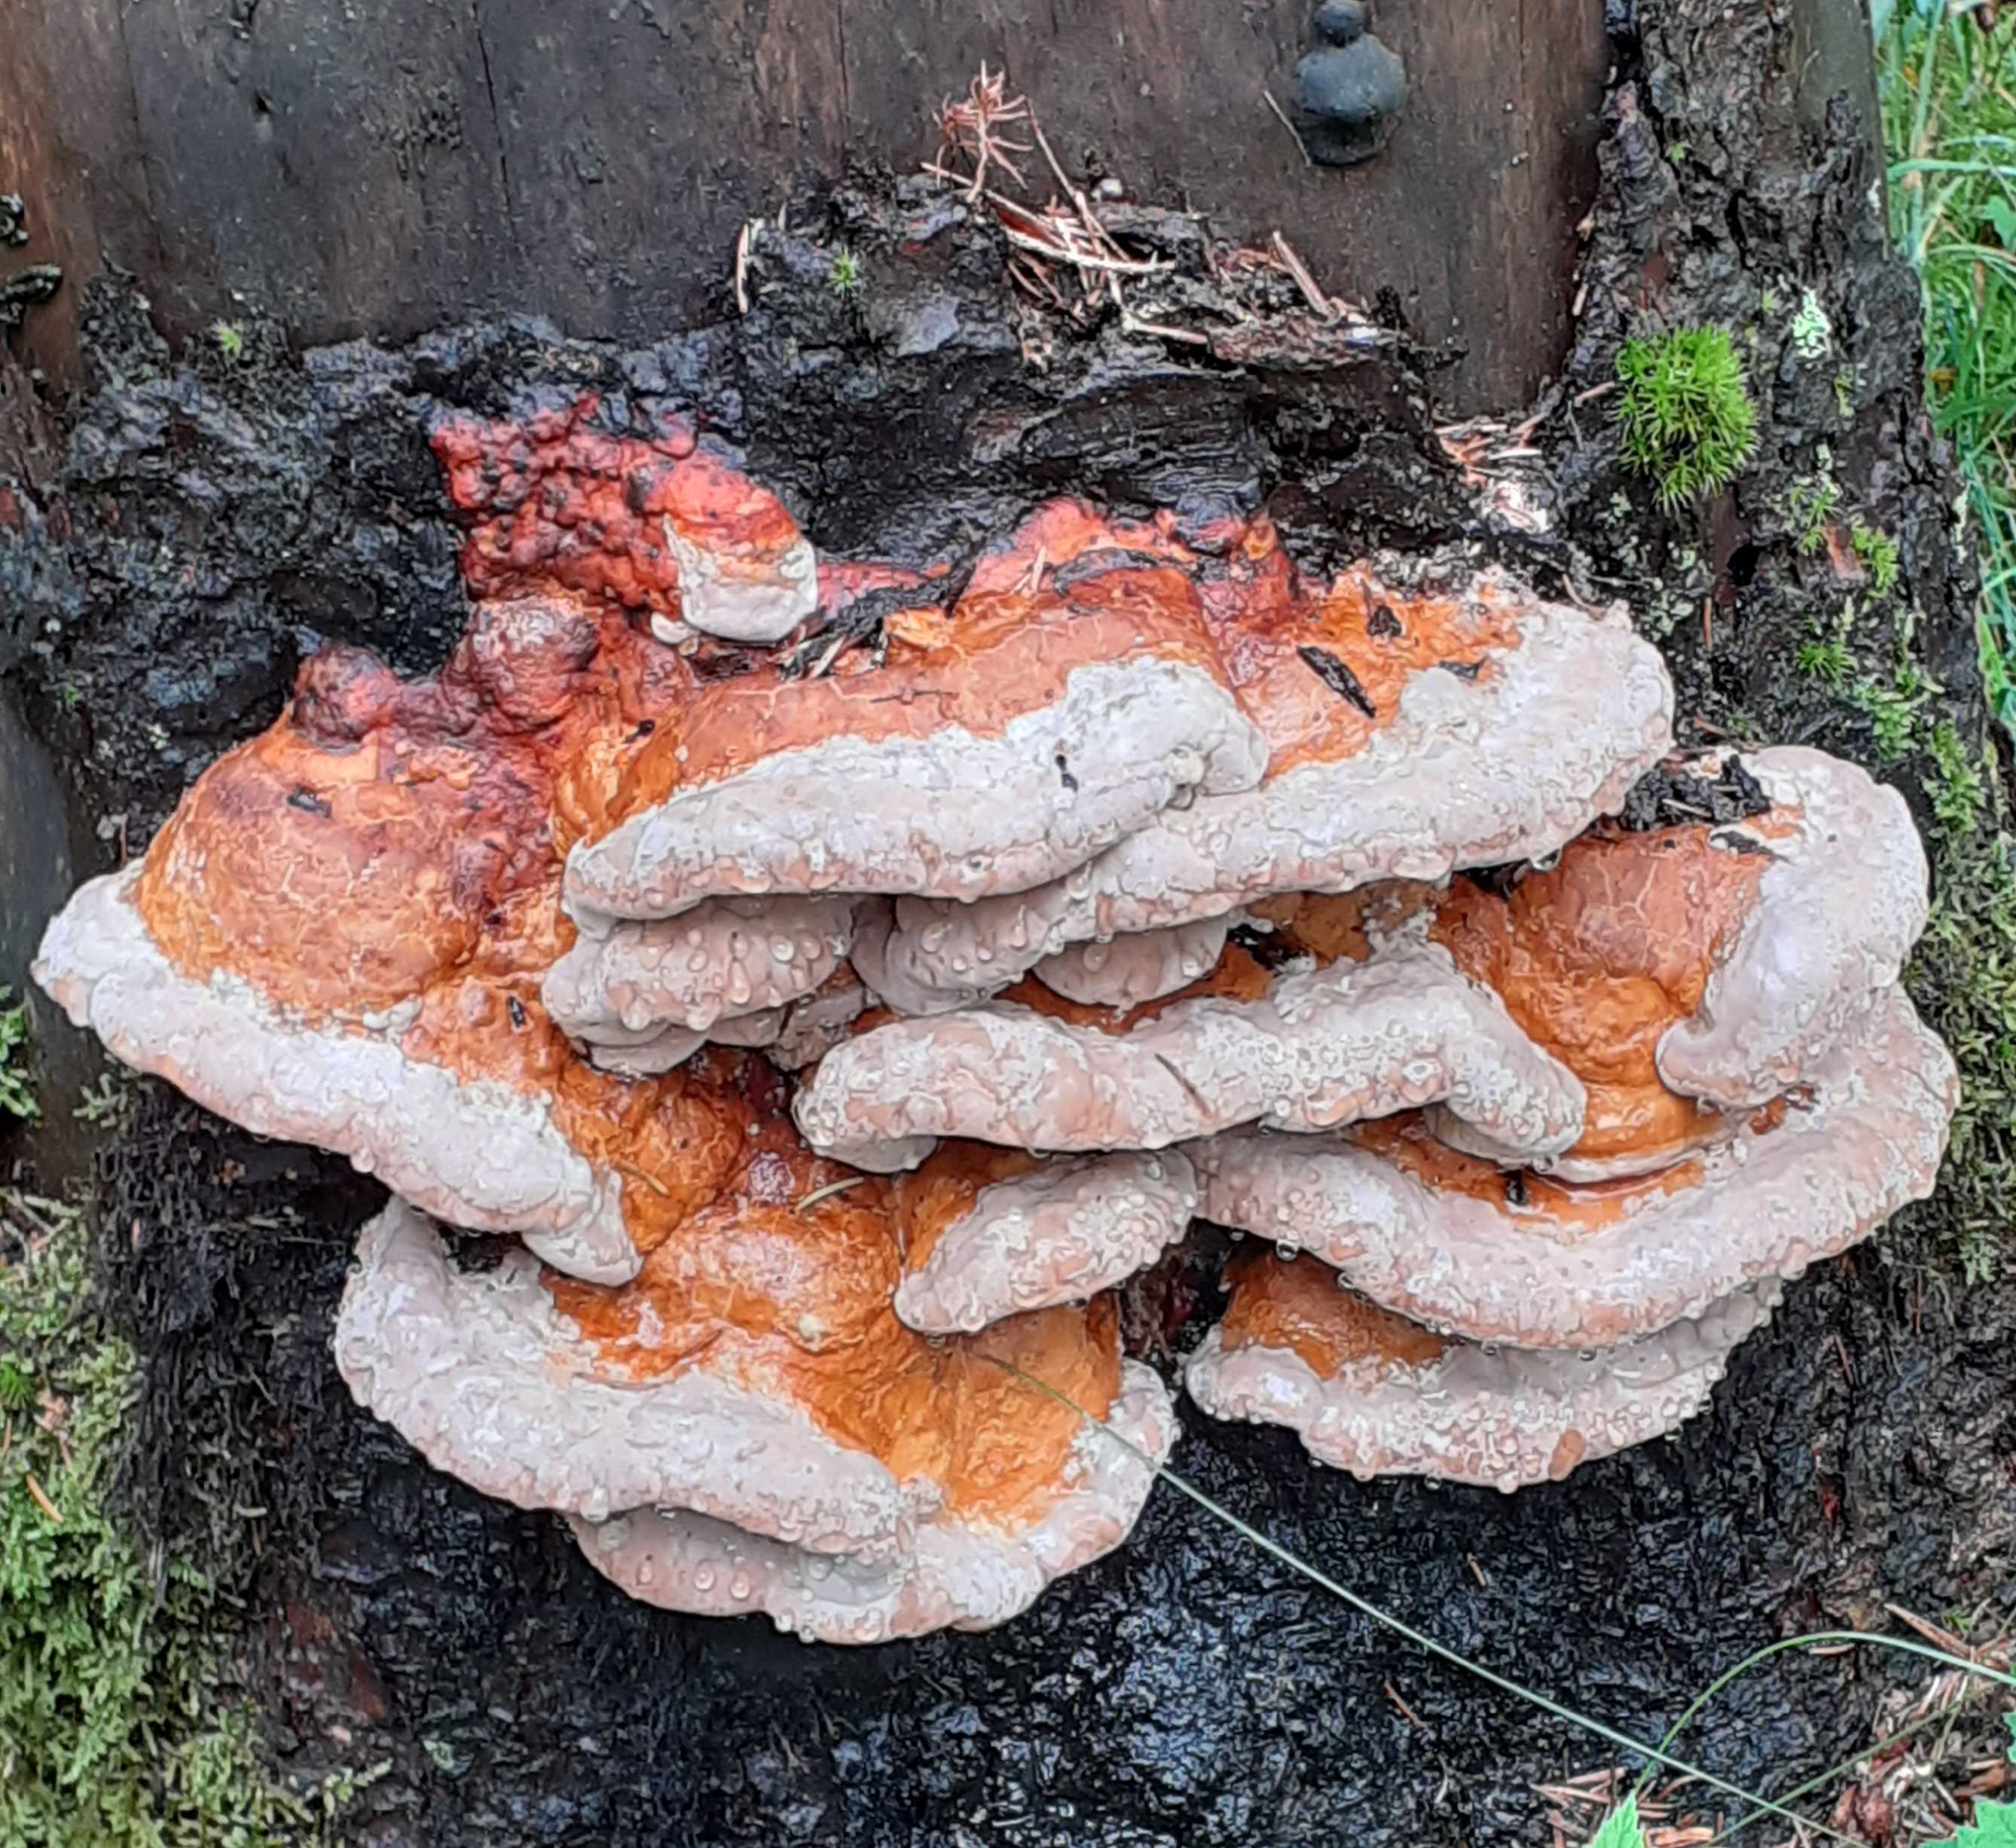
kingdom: Fungi
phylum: Basidiomycota
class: Agaricomycetes
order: Polyporales
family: Fomitopsidaceae
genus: Fomitopsis
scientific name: Fomitopsis pinicola
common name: randbæltet hovporesvamp
